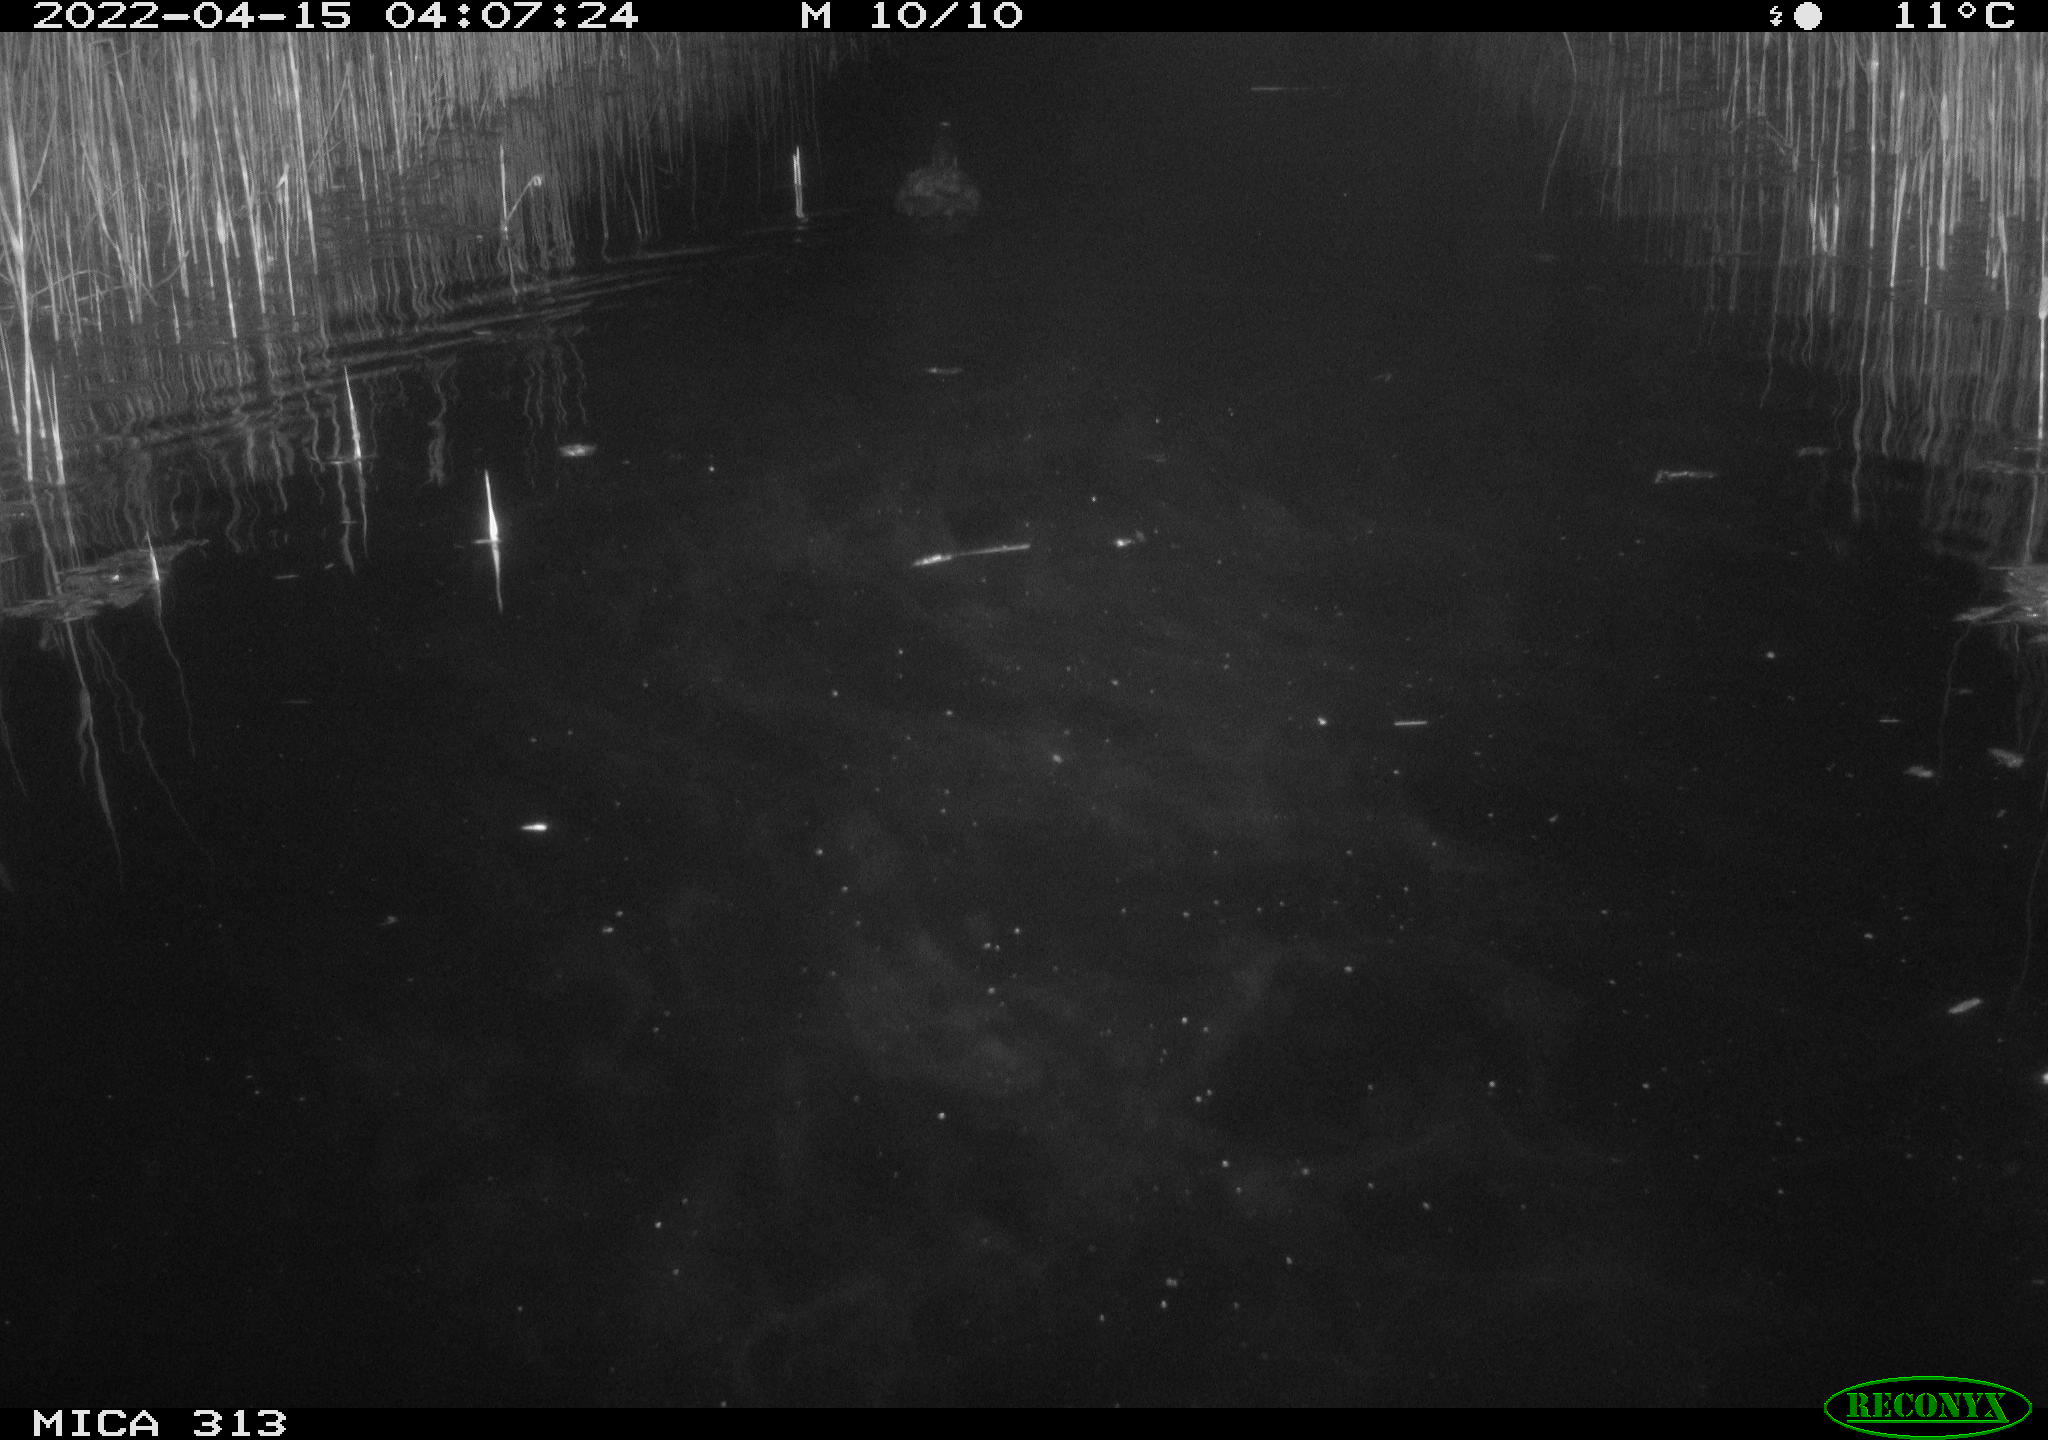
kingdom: Animalia
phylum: Chordata
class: Aves
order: Gruiformes
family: Rallidae
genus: Fulica
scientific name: Fulica atra
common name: Eurasian coot
